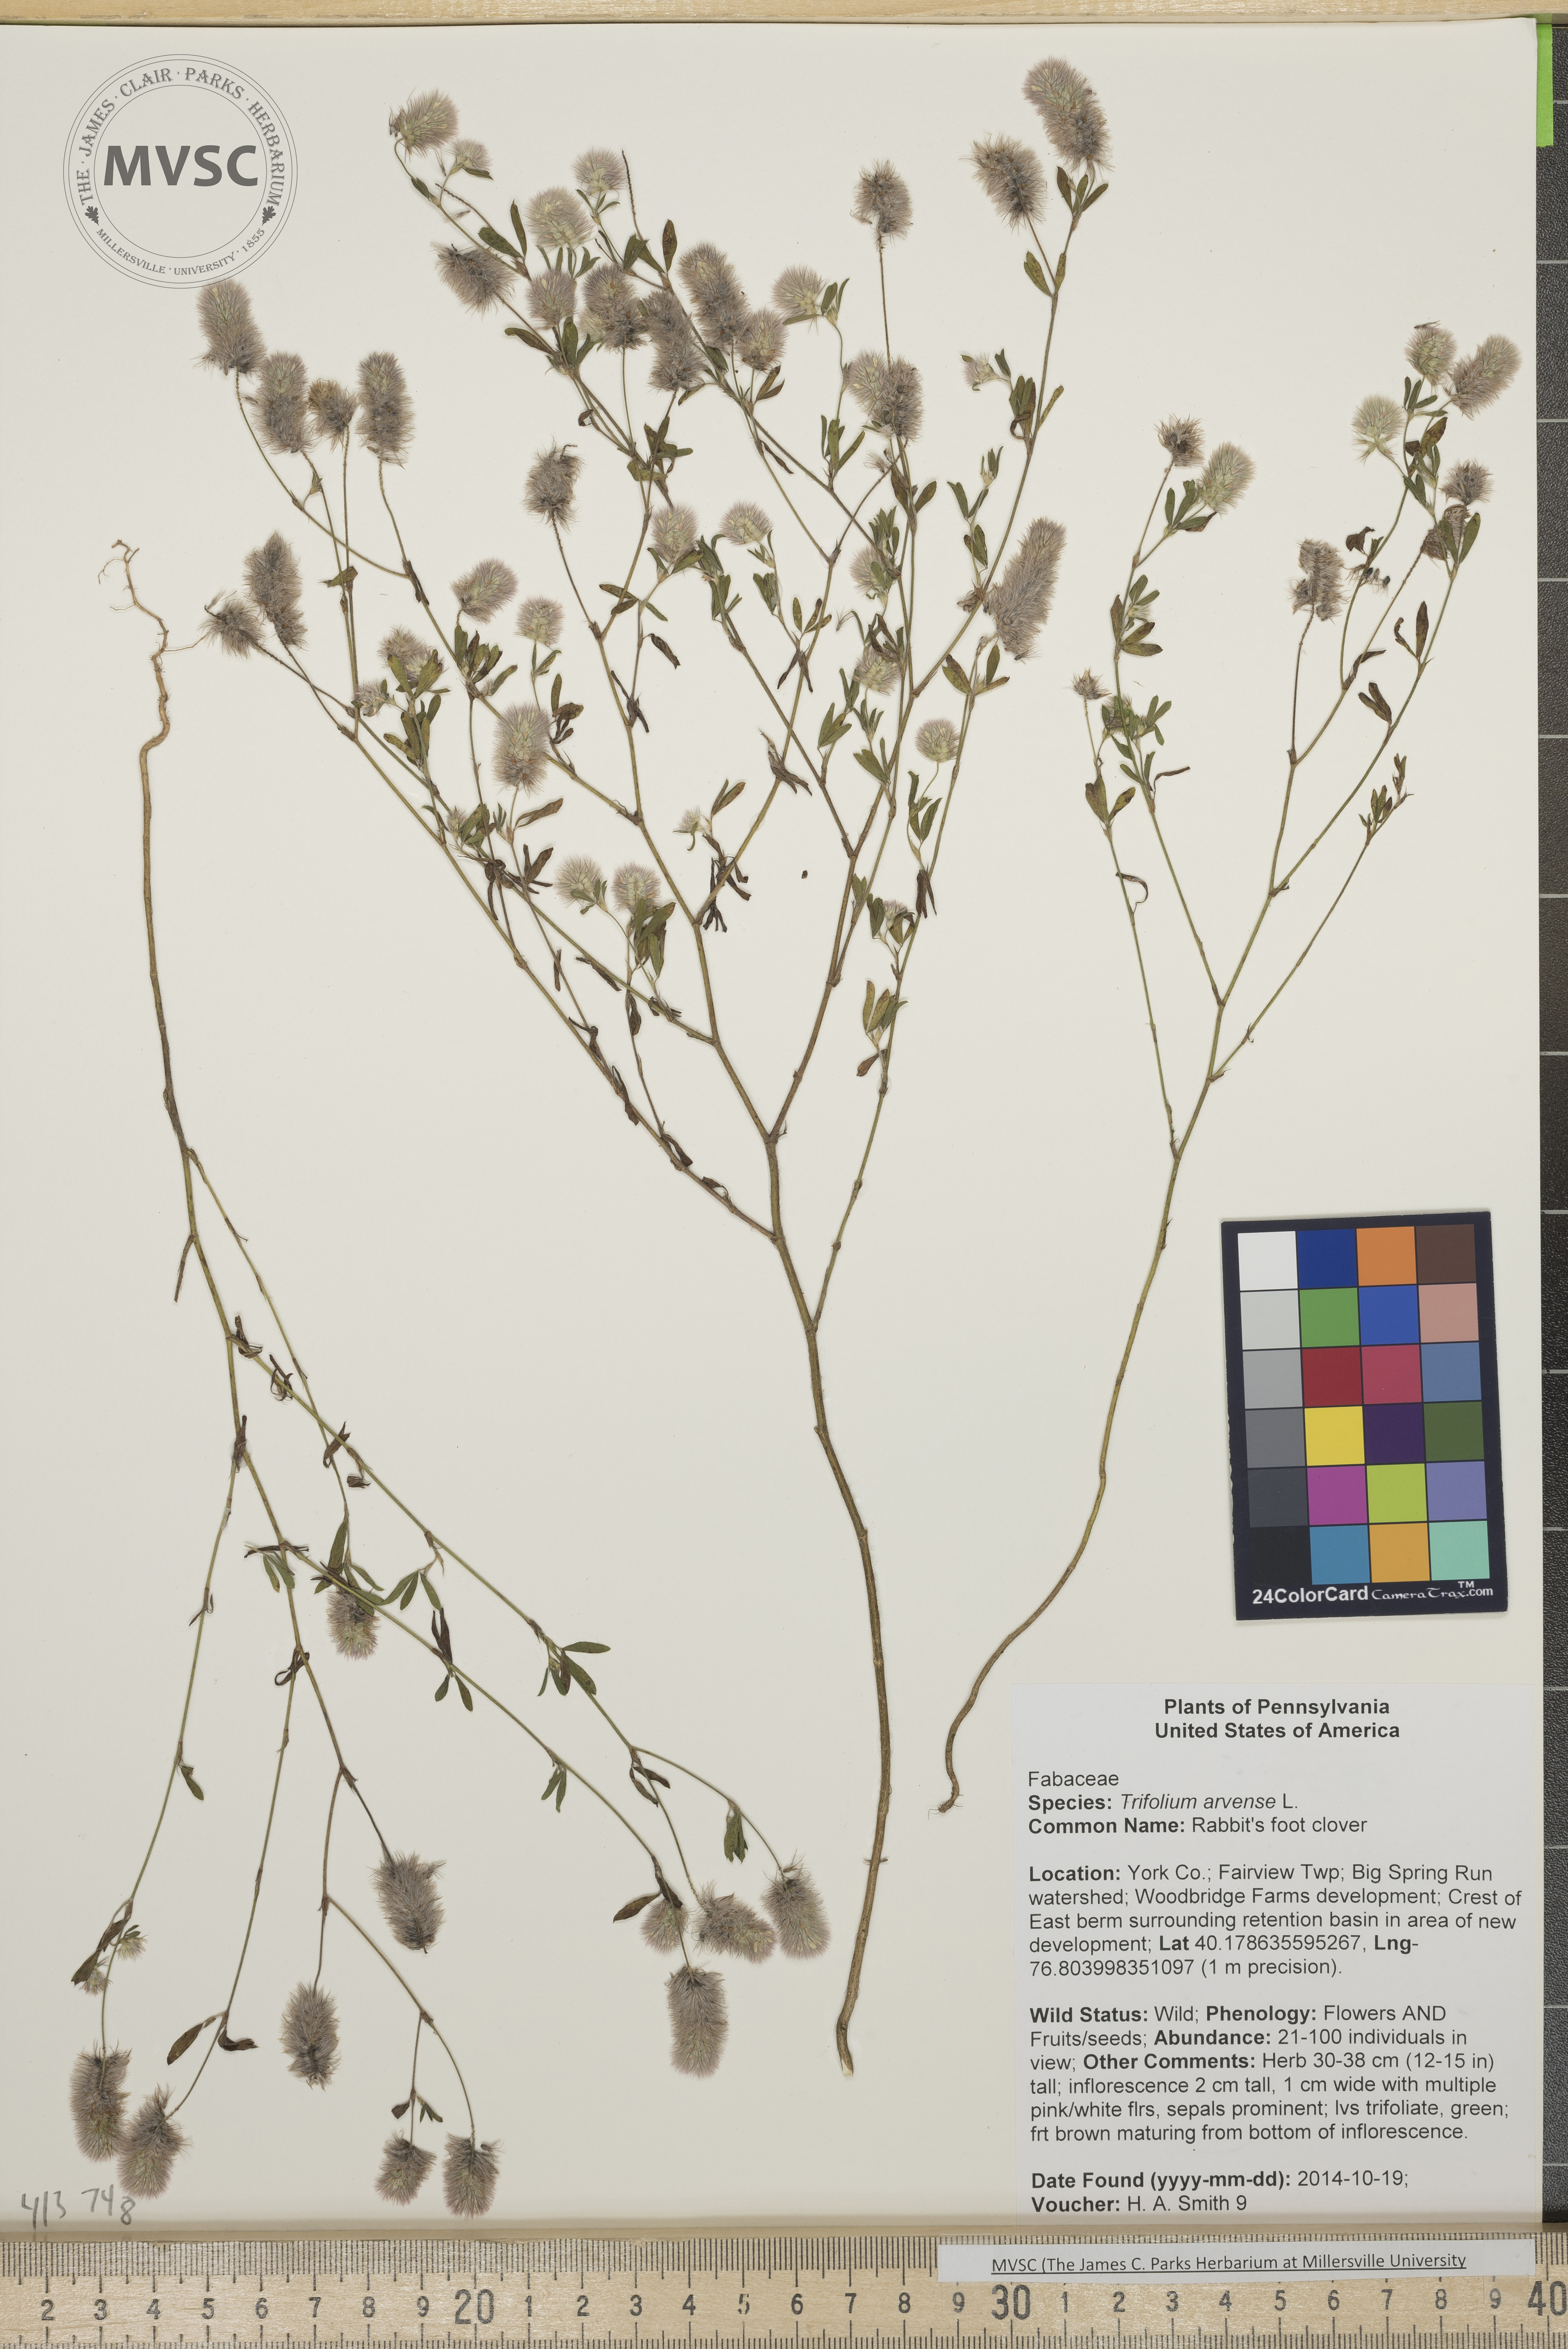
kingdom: Plantae
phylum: Tracheophyta
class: Magnoliopsida
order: Fabales
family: Fabaceae
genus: Trifolium
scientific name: Trifolium arvense
